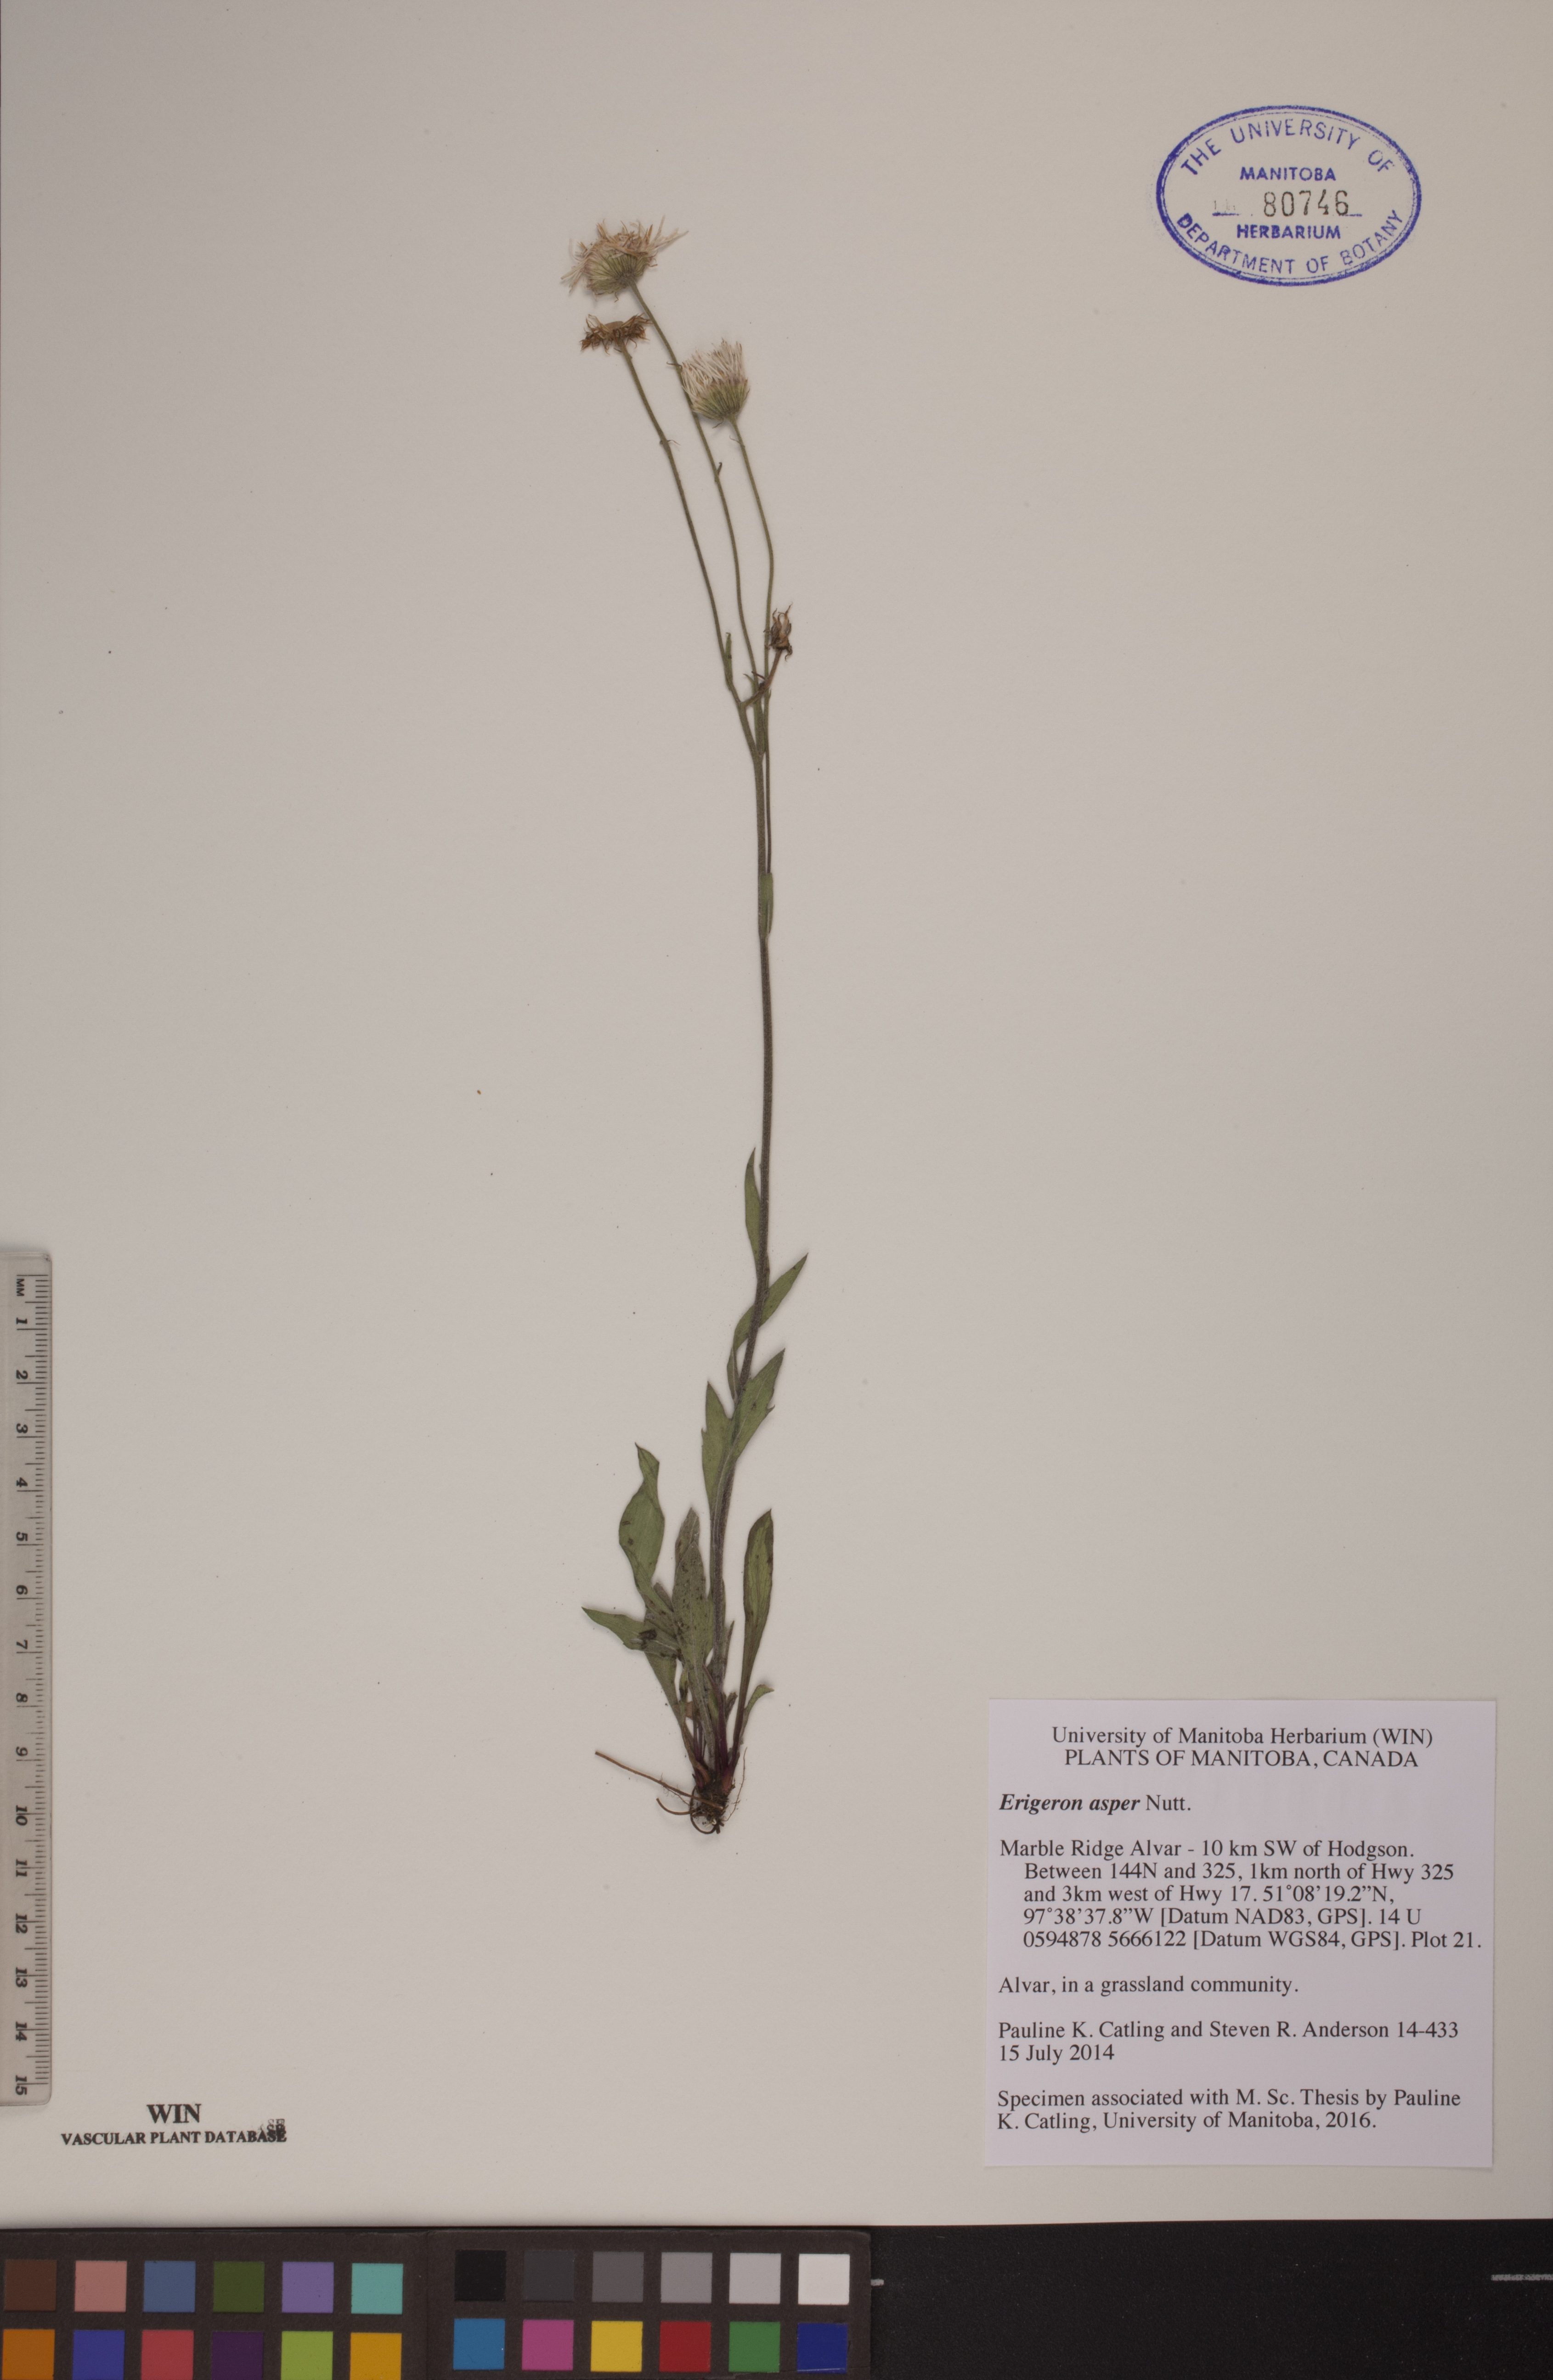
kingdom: Plantae
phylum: Tracheophyta
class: Magnoliopsida
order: Asterales
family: Asteraceae
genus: Erigeron
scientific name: Erigeron glabellus
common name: Smooth fleabane
